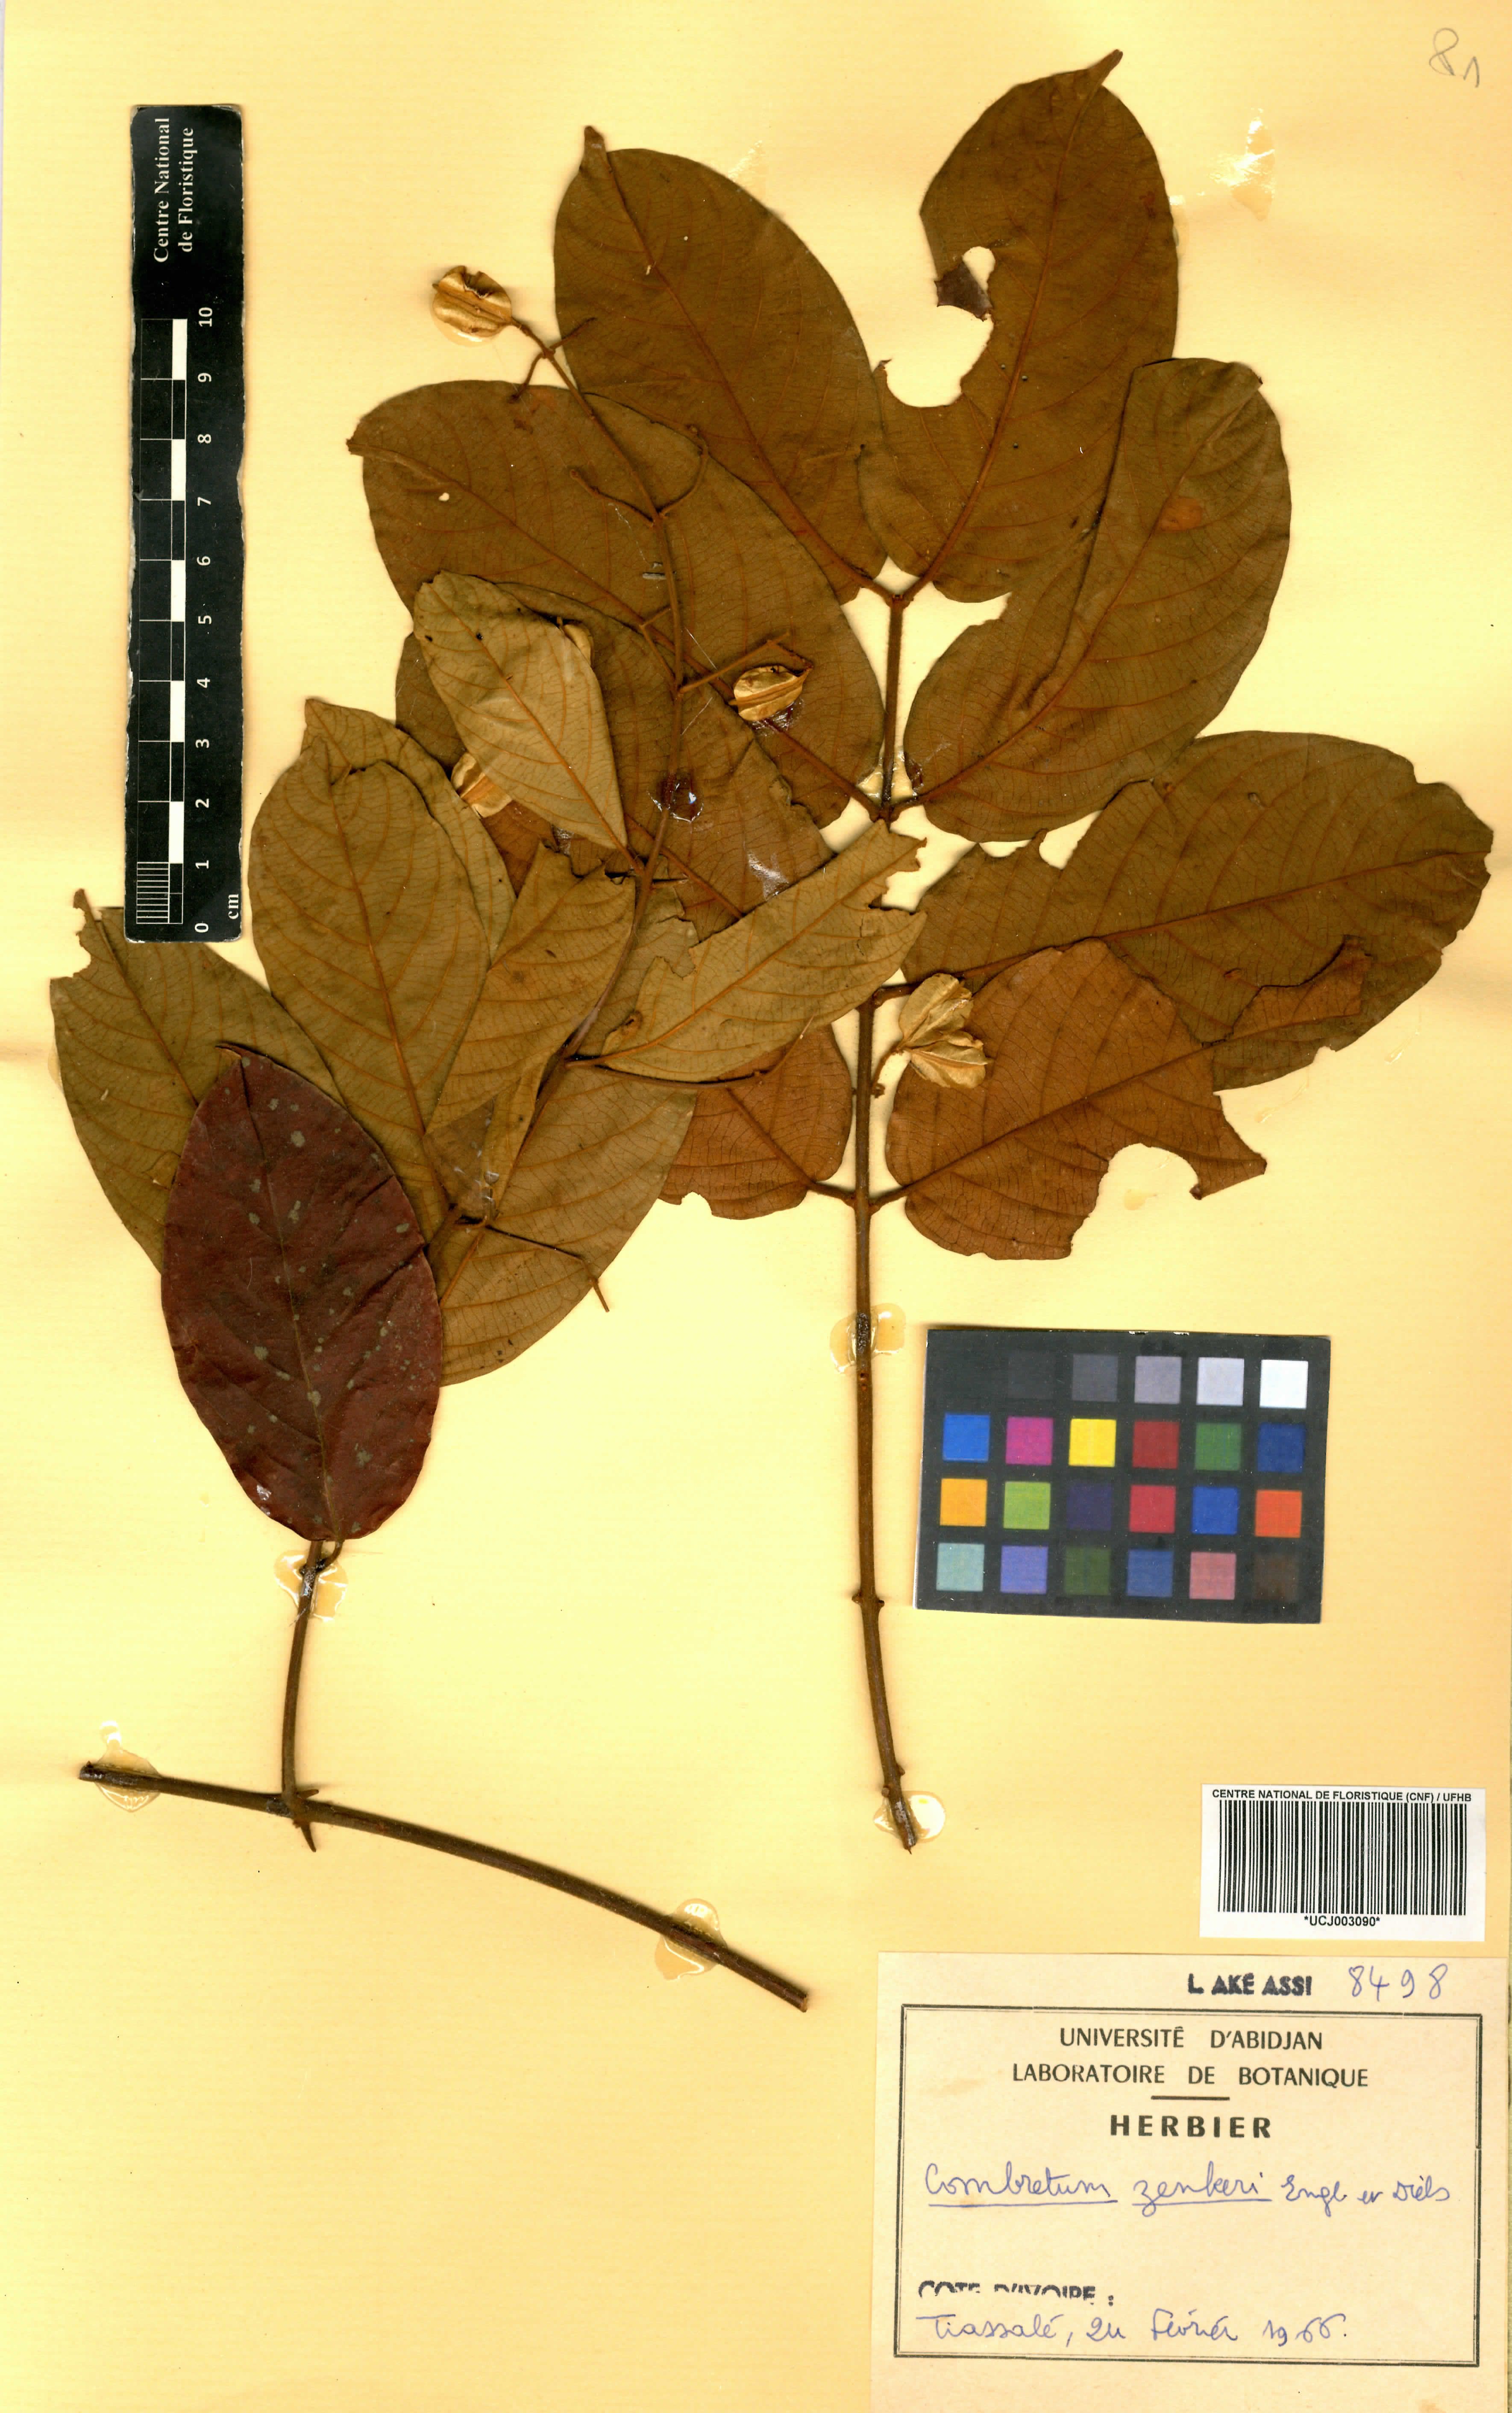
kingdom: Plantae
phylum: Tracheophyta
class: Magnoliopsida
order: Myrtales
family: Combretaceae
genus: Combretum
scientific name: Combretum zenkeri
